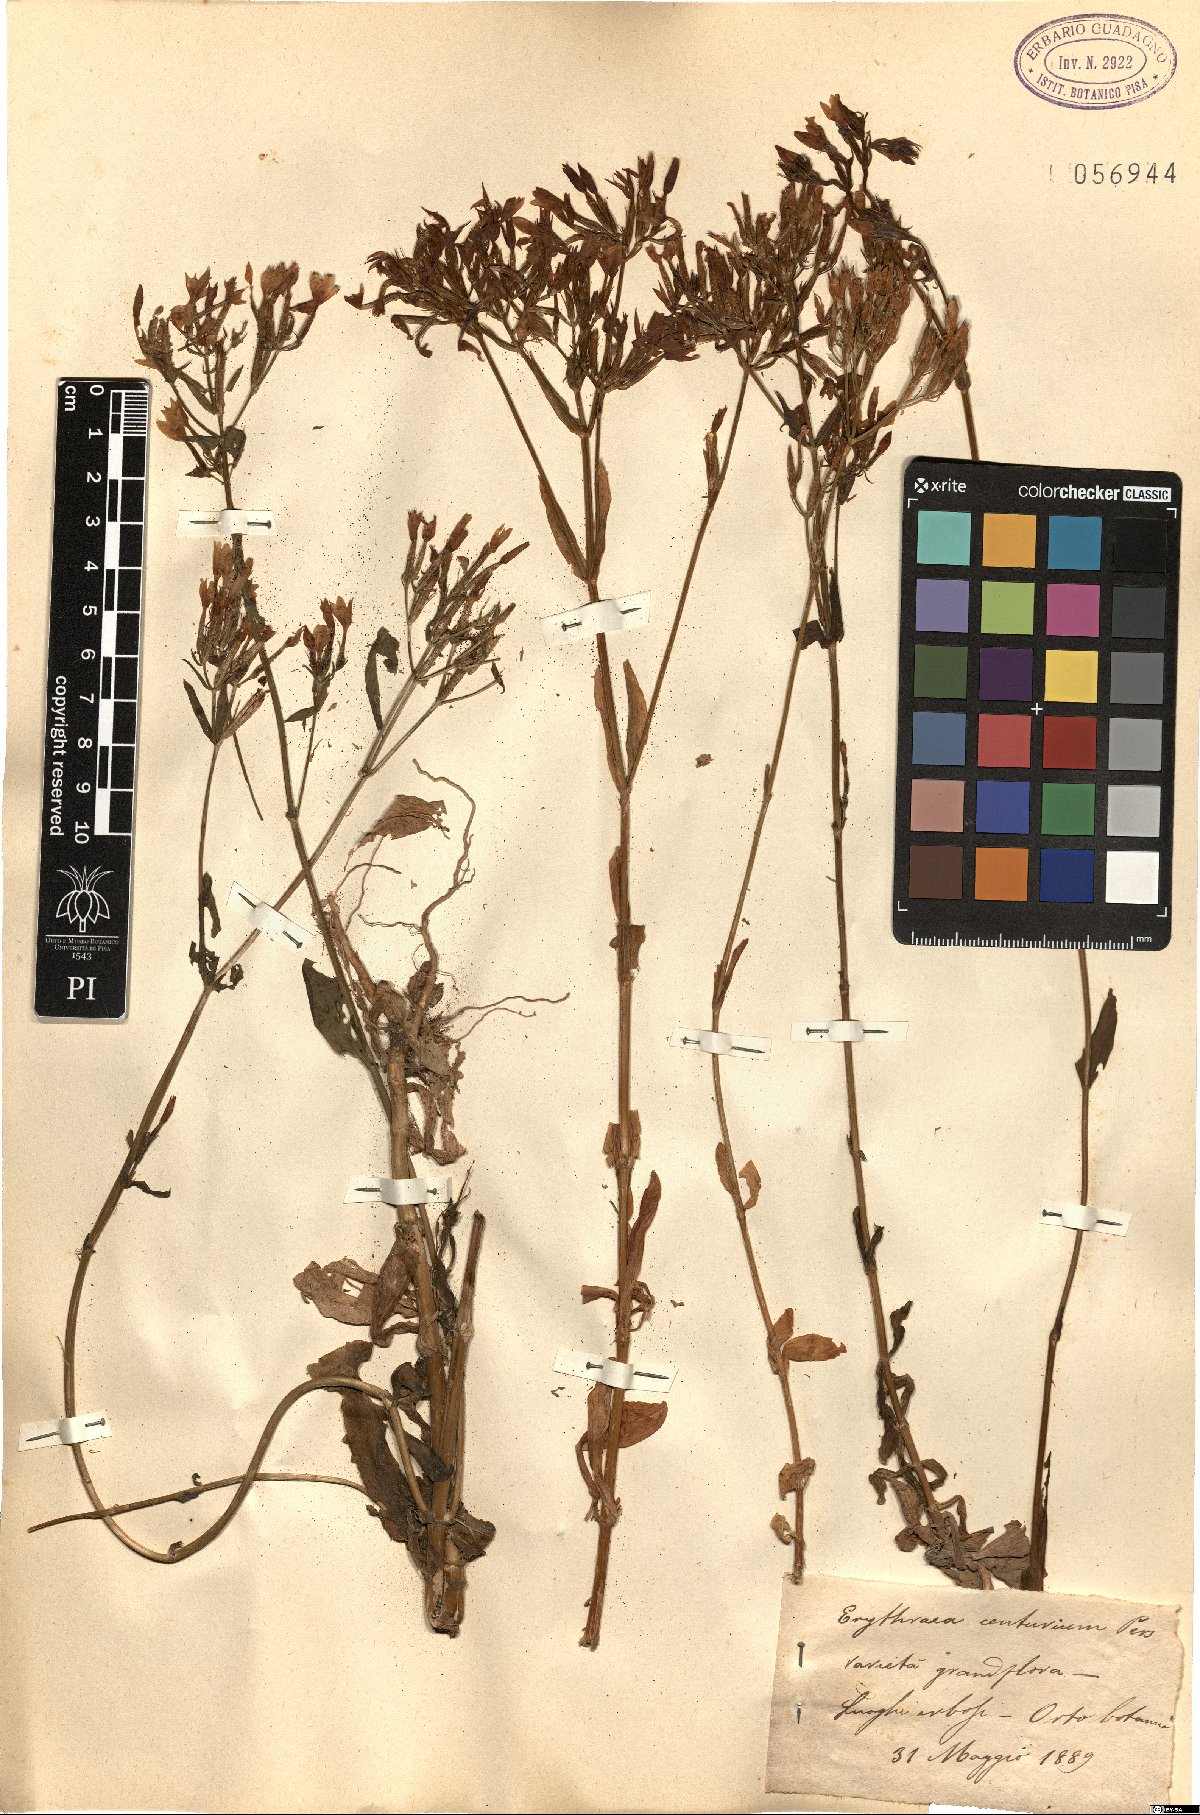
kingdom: Plantae
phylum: Tracheophyta
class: Magnoliopsida
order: Gentianales
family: Gentianaceae
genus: Centaurium
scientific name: Centaurium erythraea
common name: Common centaury
